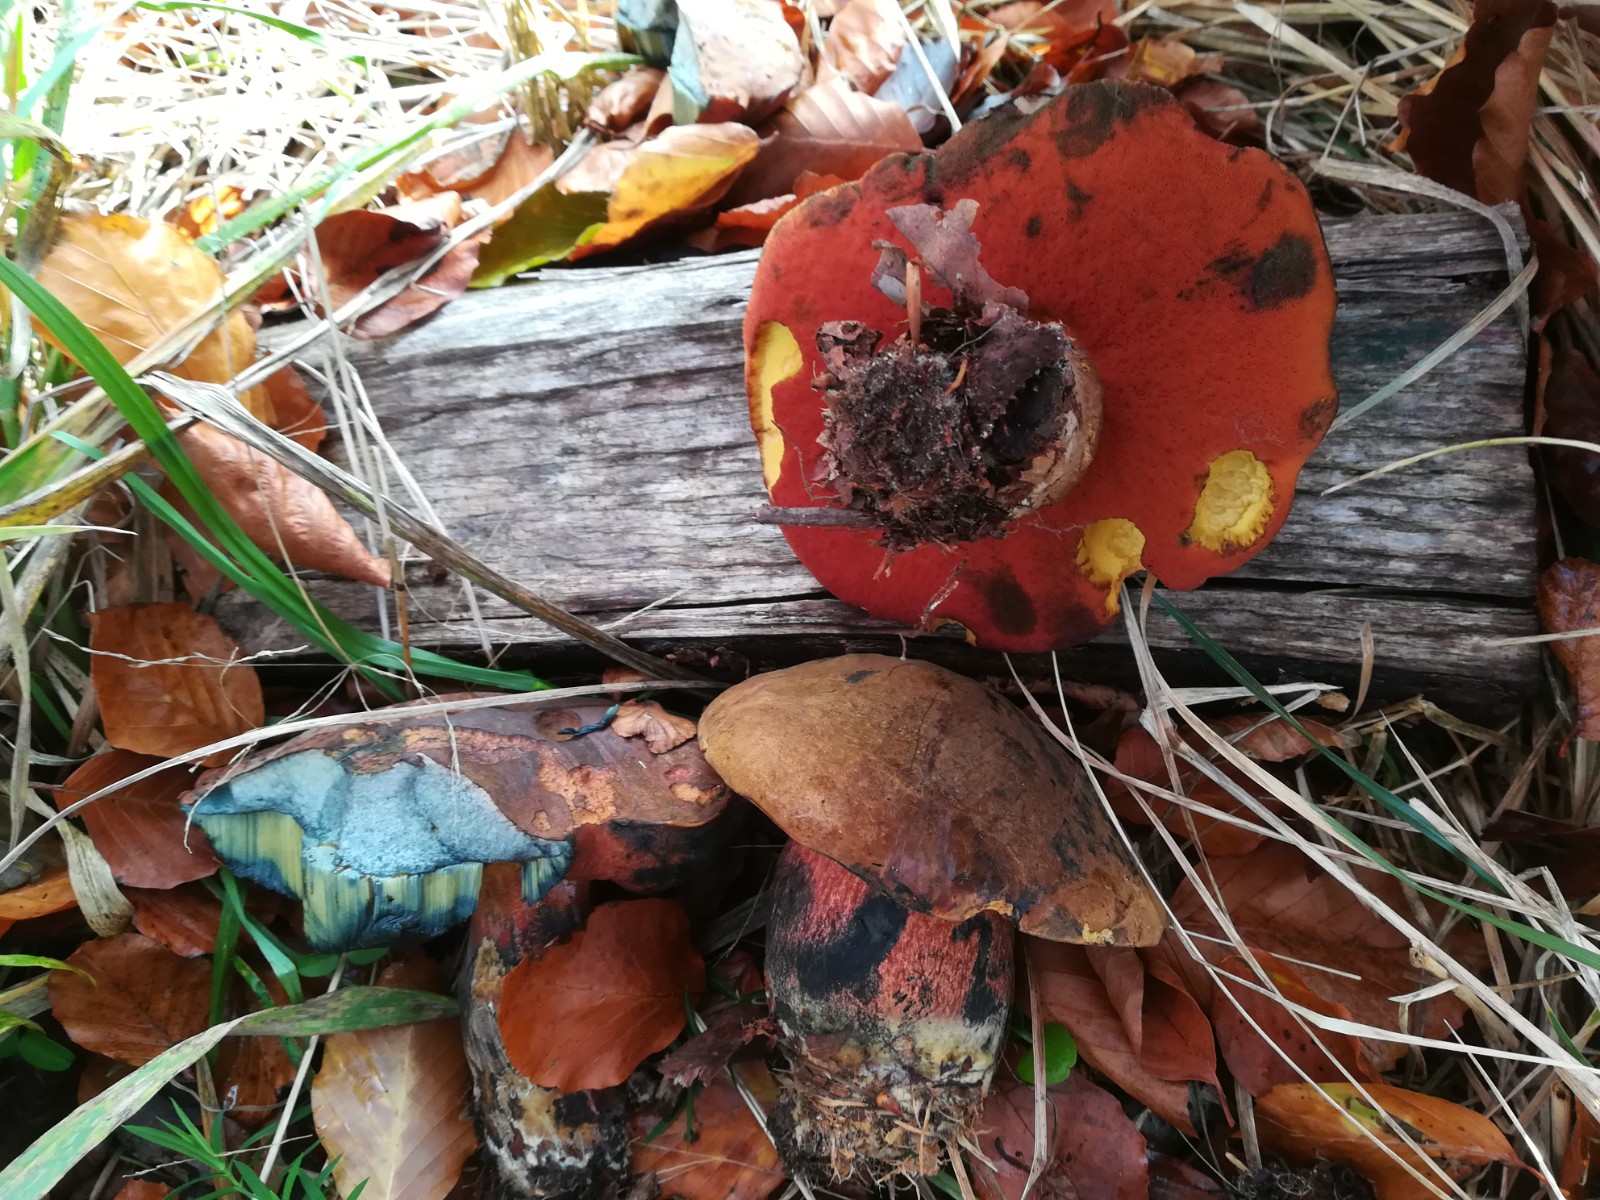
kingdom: Fungi
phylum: Basidiomycota
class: Agaricomycetes
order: Boletales
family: Boletaceae
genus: Neoboletus
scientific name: Neoboletus erythropus
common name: punktstokket indigorørhat
